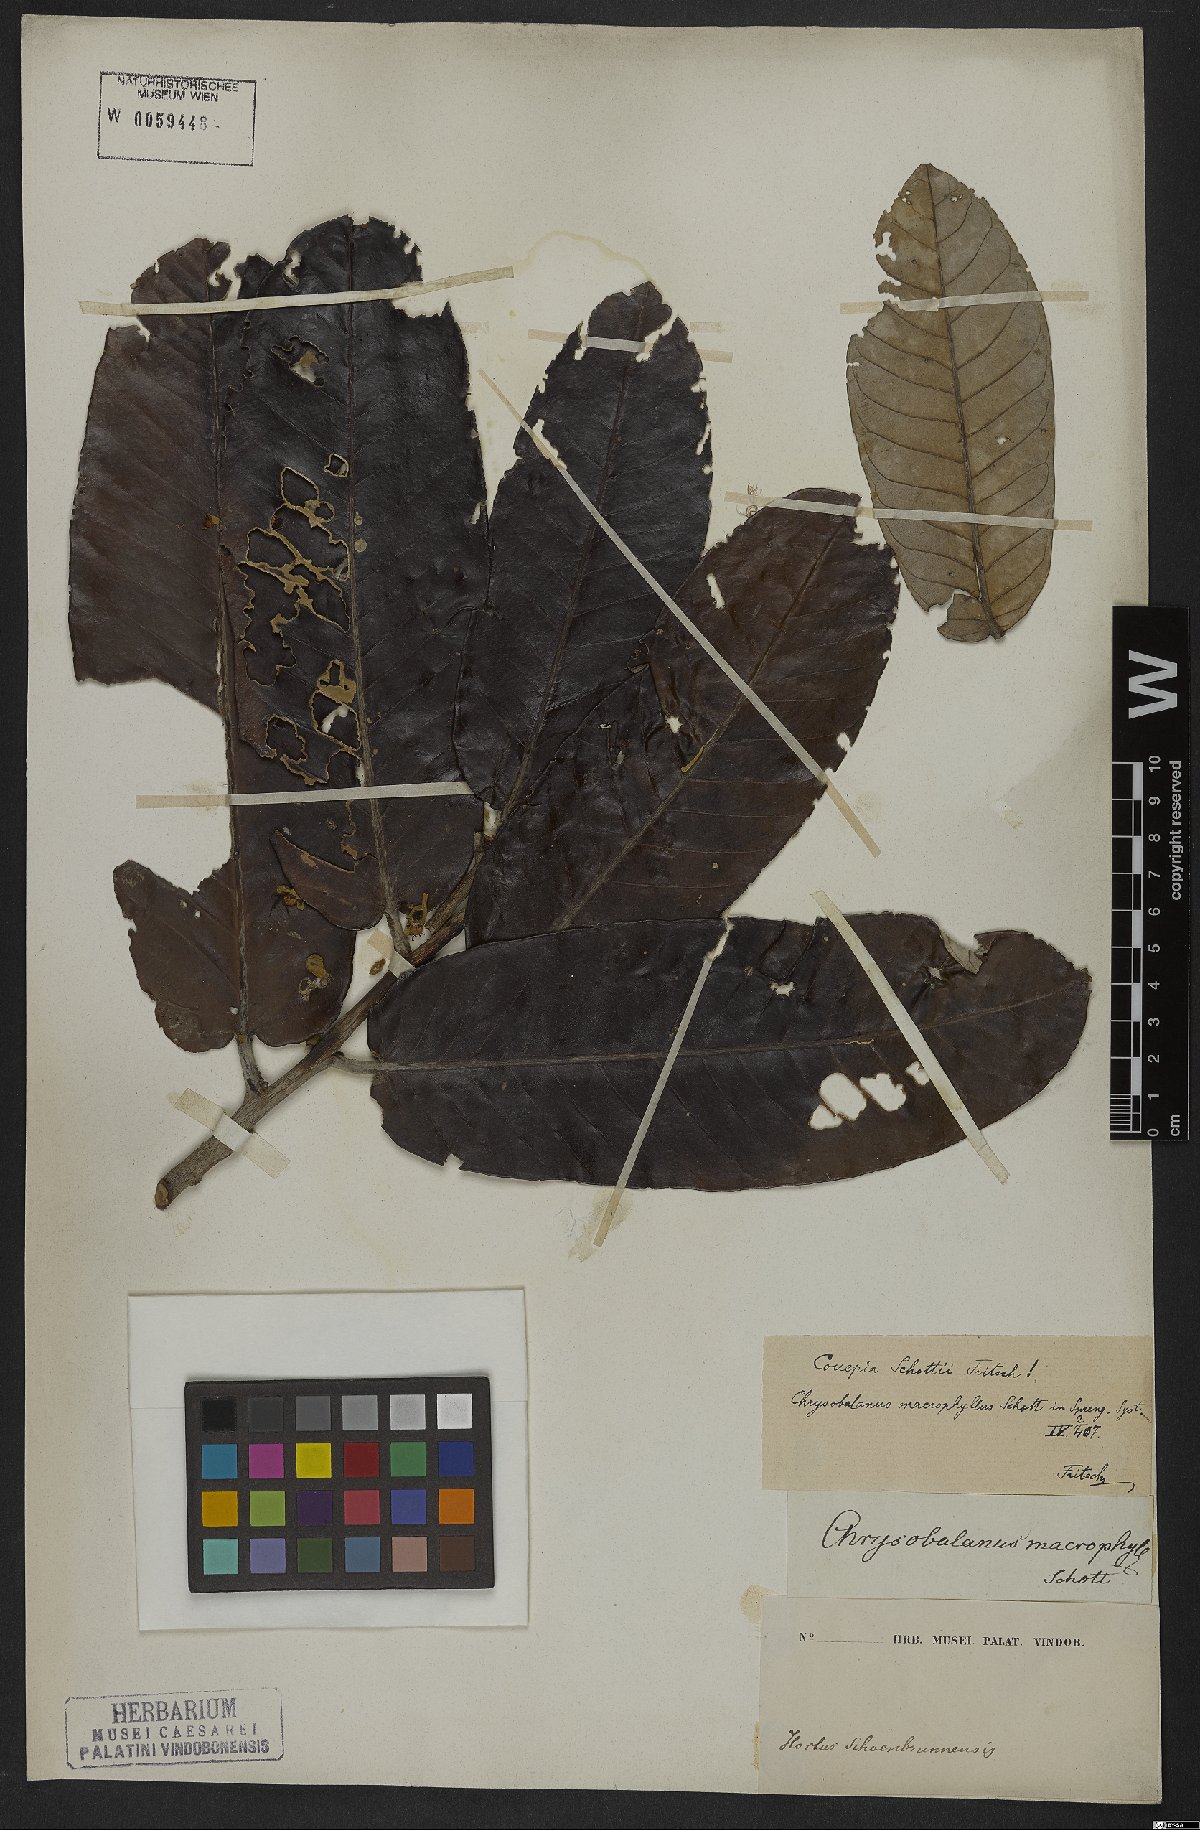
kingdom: Plantae
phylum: Tracheophyta
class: Magnoliopsida
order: Malpighiales
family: Chrysobalanaceae
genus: Couepia
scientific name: Couepia schottii
